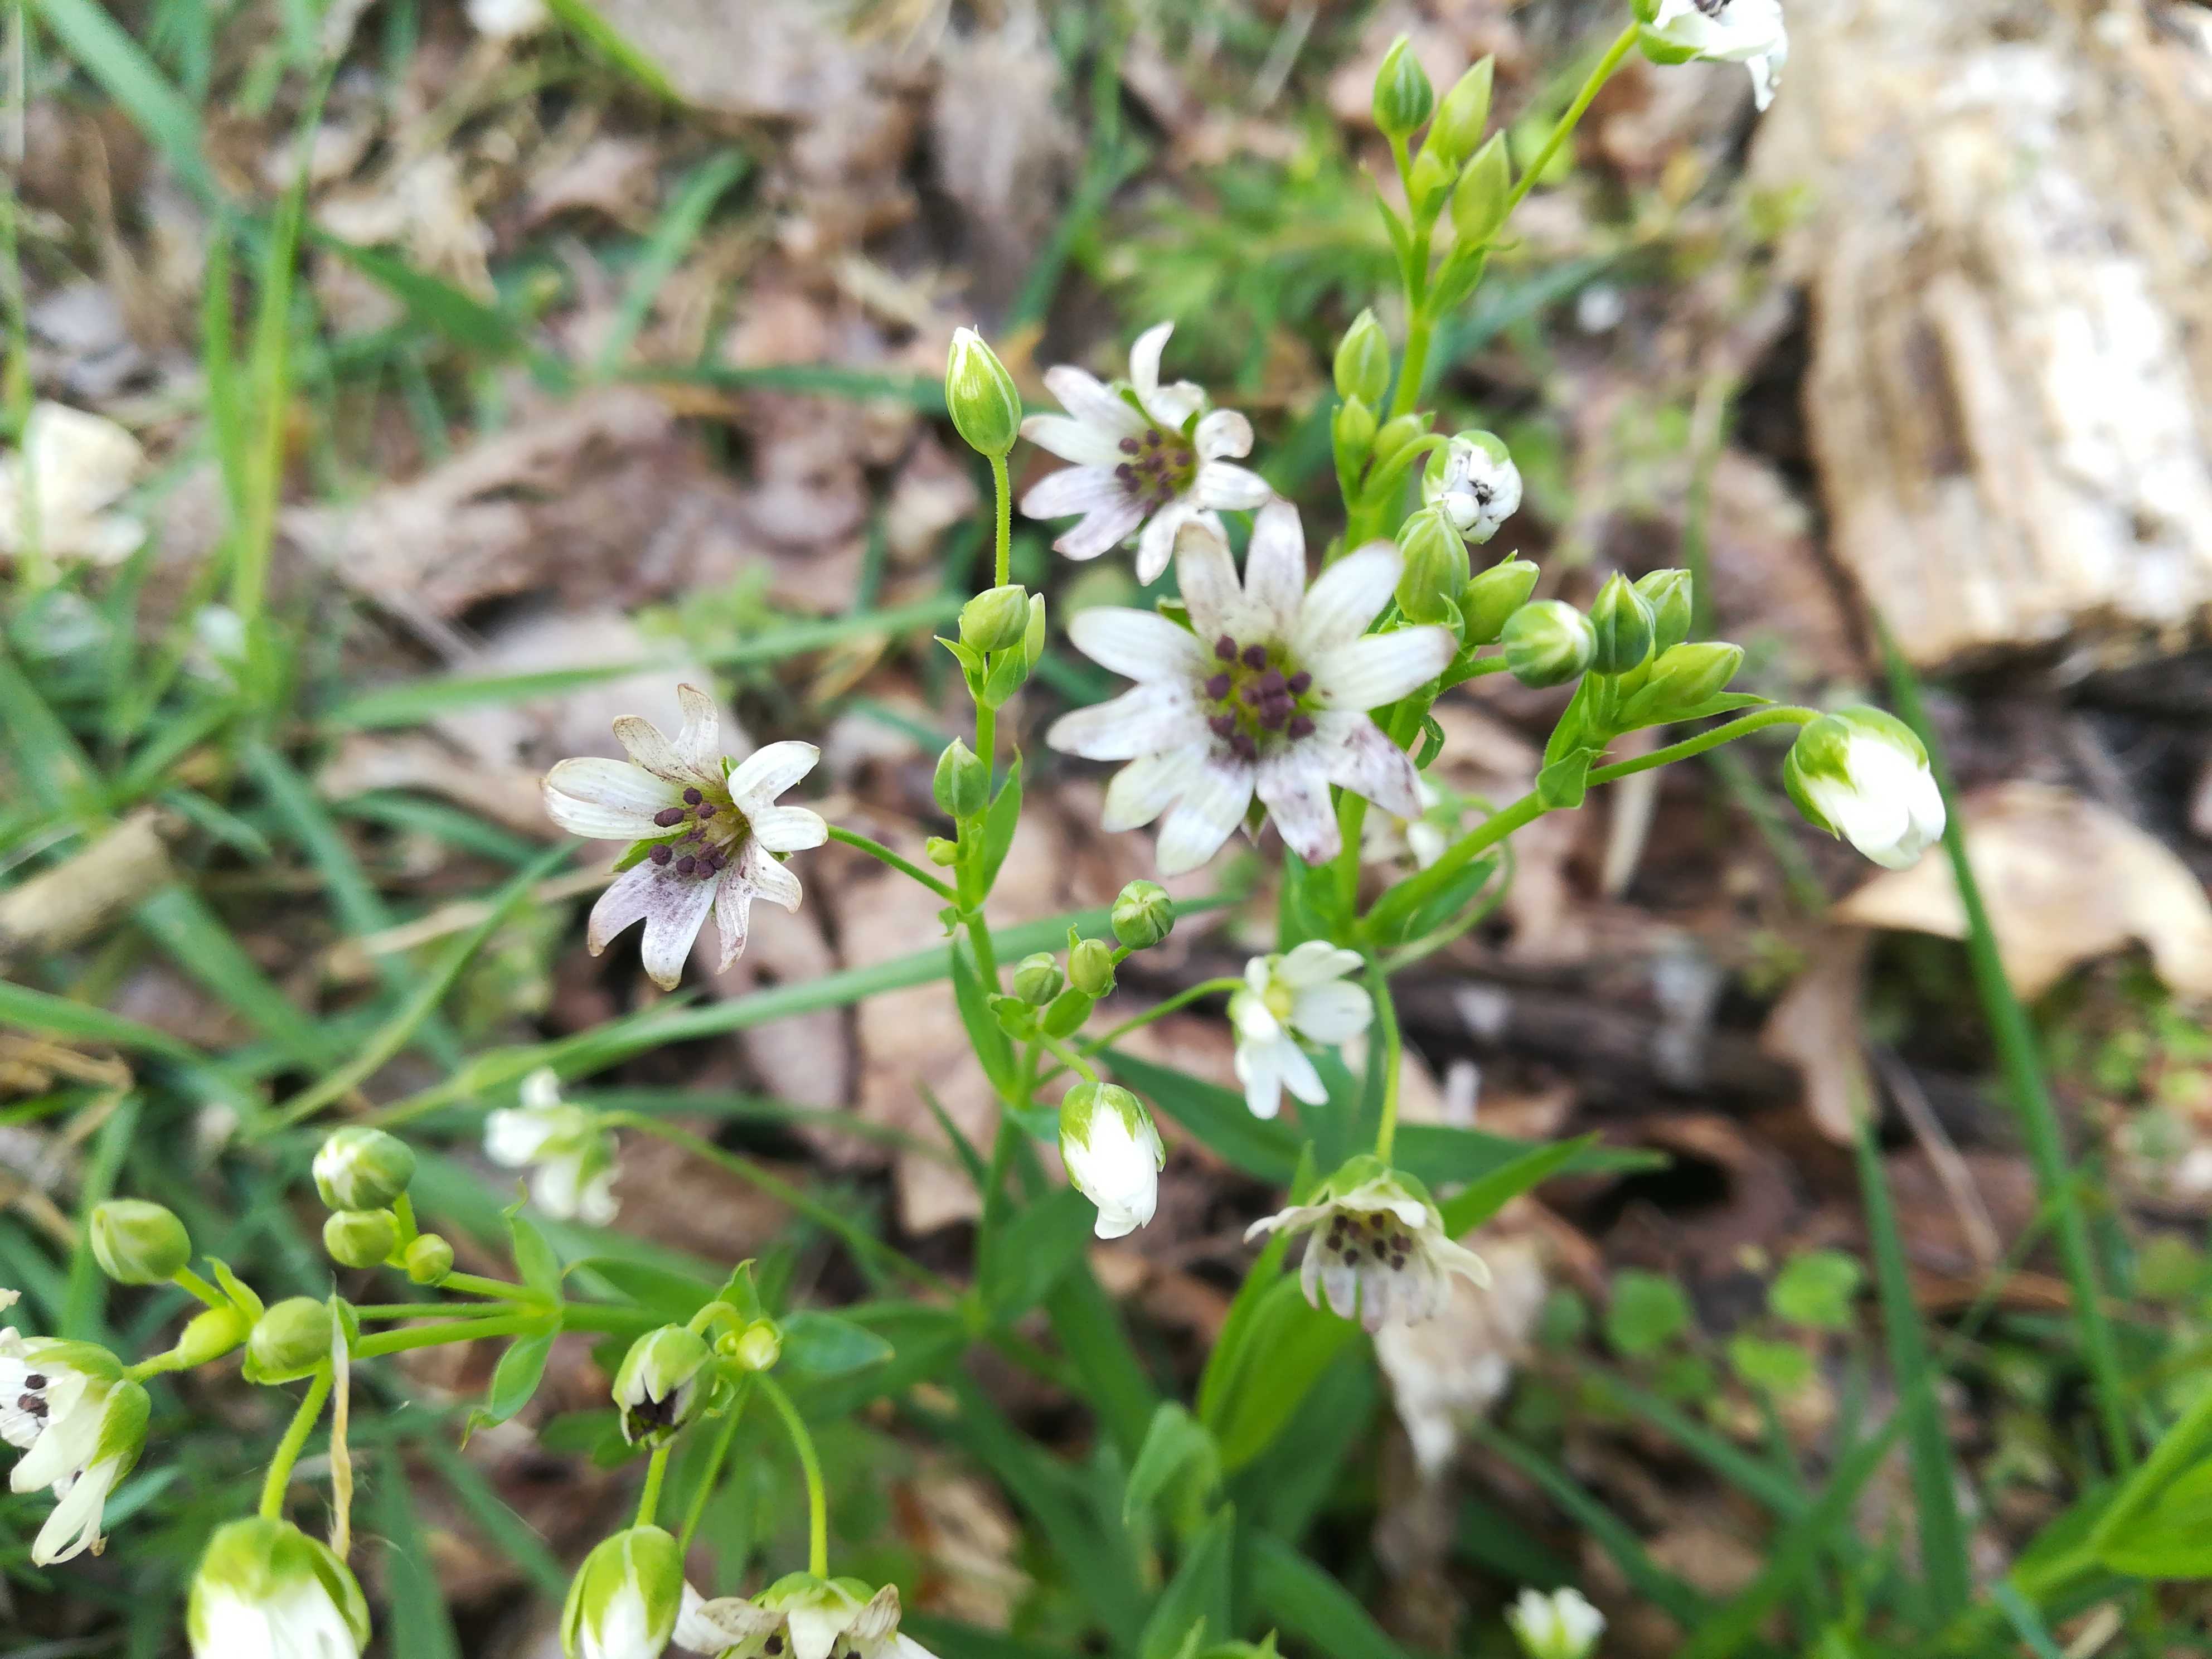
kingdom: Fungi
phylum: Basidiomycota
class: Microbotryomycetes
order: Microbotryales
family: Microbotryaceae
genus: Microbotryum
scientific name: Microbotryum stellariae
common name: fladstjerne-støvbladrust
